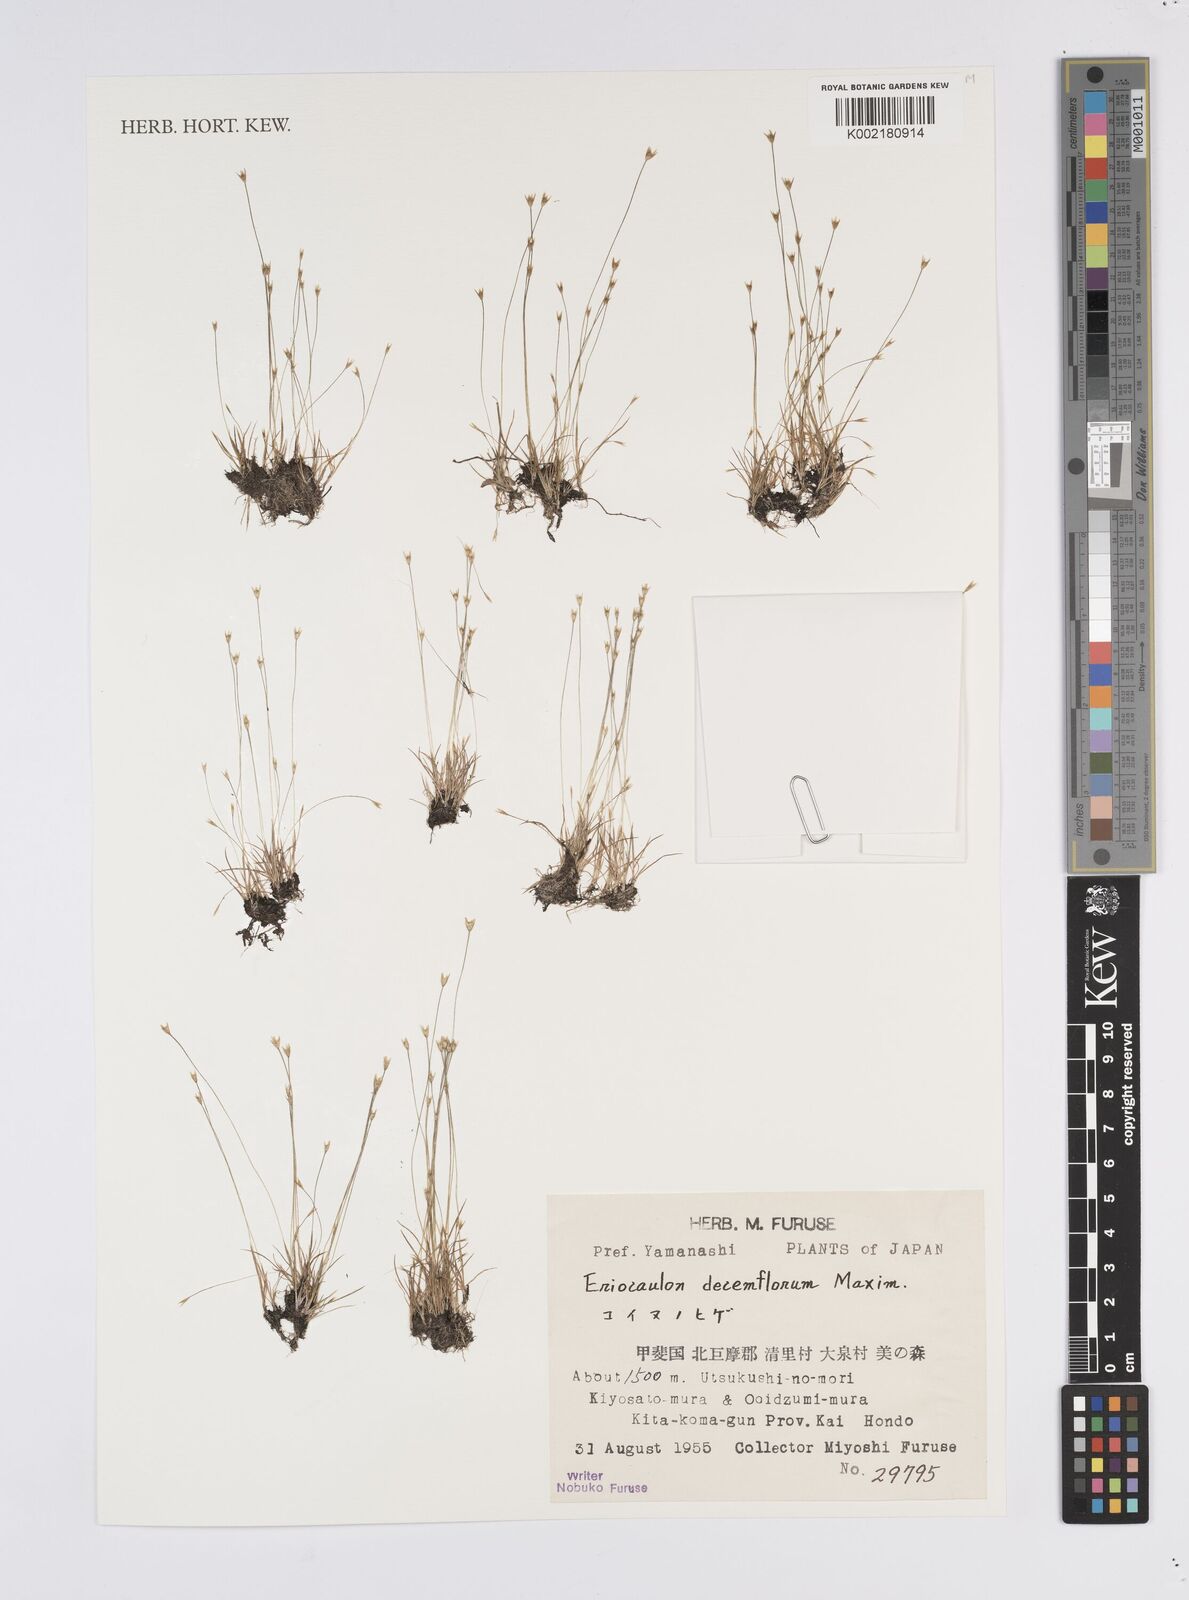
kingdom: Plantae
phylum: Tracheophyta
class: Liliopsida
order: Poales
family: Eriocaulaceae
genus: Eriocaulon
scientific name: Eriocaulon decemflorum
